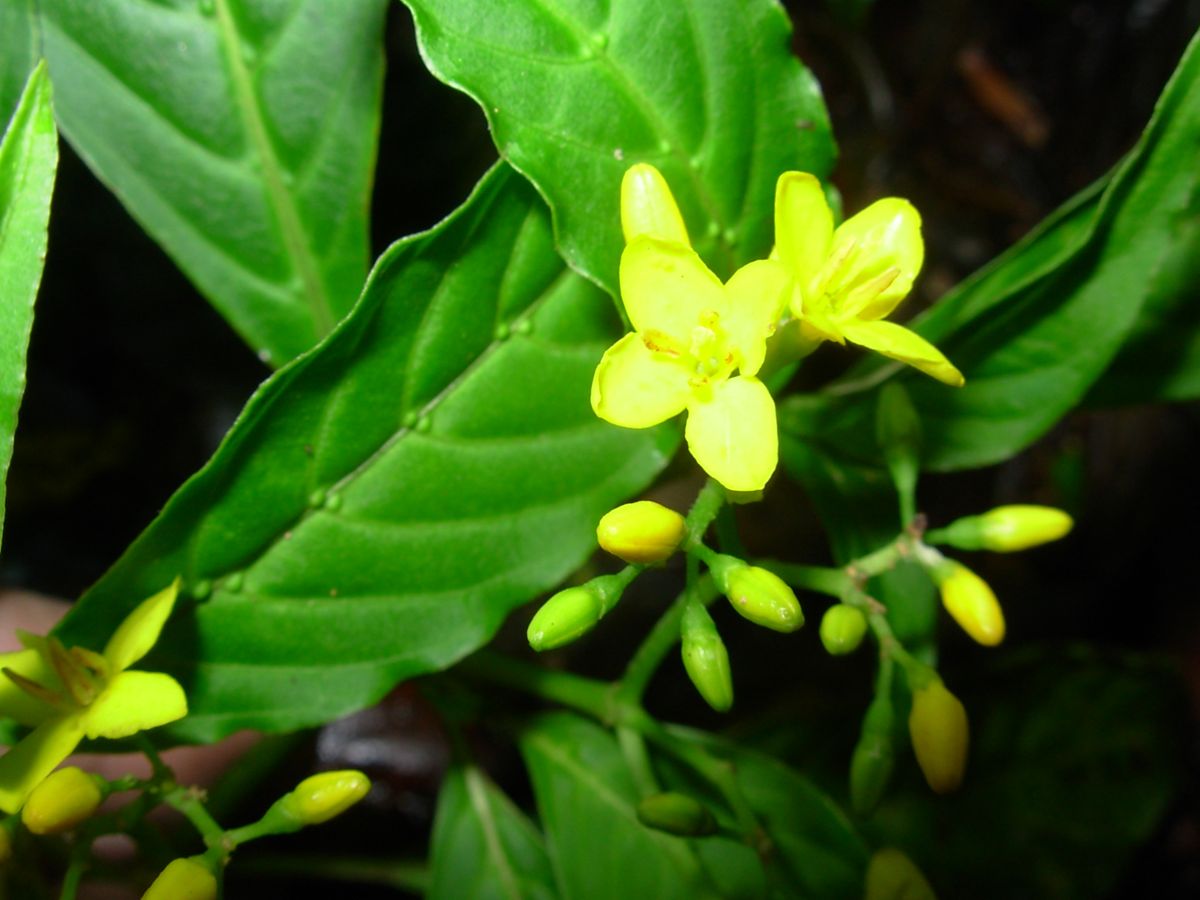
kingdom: Plantae
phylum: Tracheophyta
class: Magnoliopsida
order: Gentianales
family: Rubiaceae
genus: Deppea
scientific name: Deppea grandiflora
